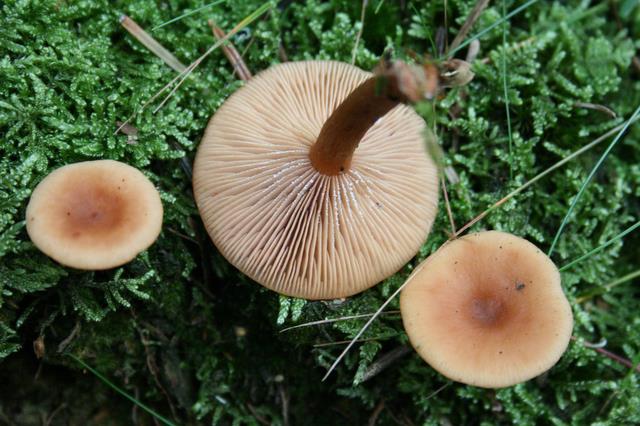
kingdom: Fungi
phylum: Basidiomycota
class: Agaricomycetes
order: Russulales
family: Russulaceae
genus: Lactarius
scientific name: Lactarius tabidus
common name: rynket mælkehat
